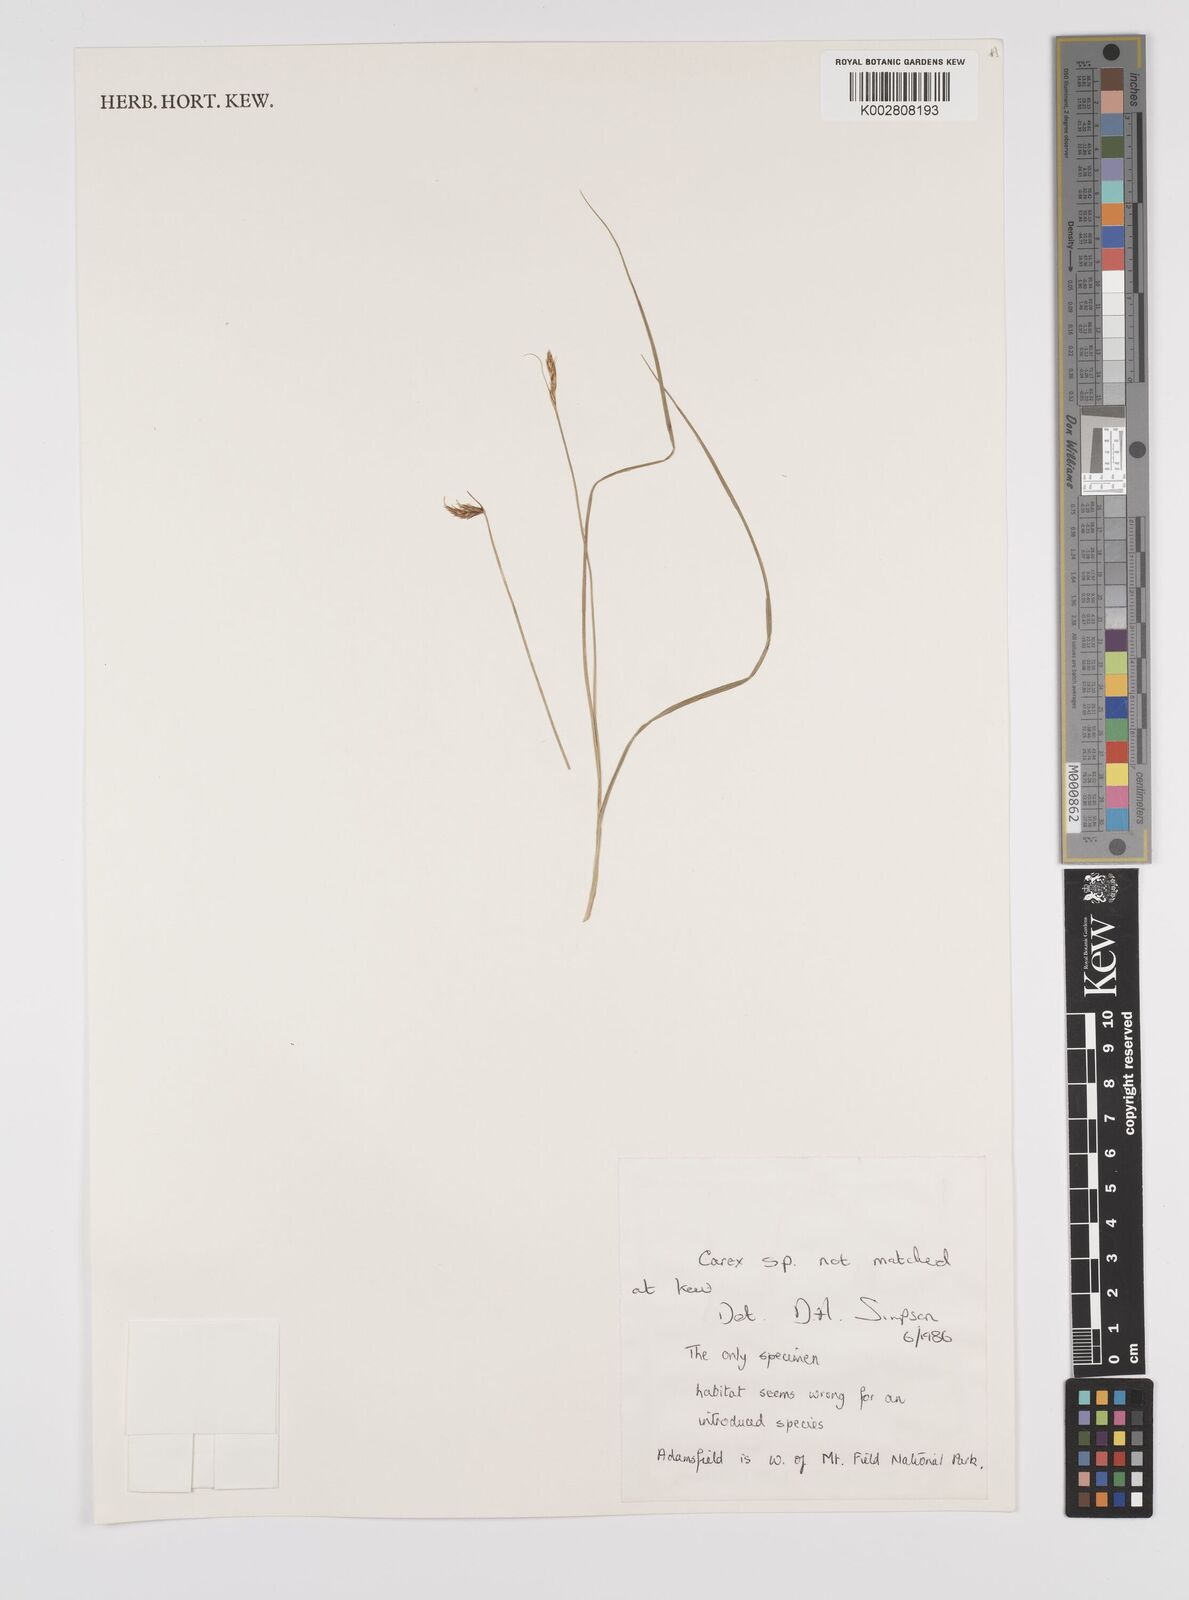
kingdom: Plantae
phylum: Tracheophyta
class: Liliopsida
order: Poales
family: Cyperaceae
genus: Carex
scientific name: Carex
